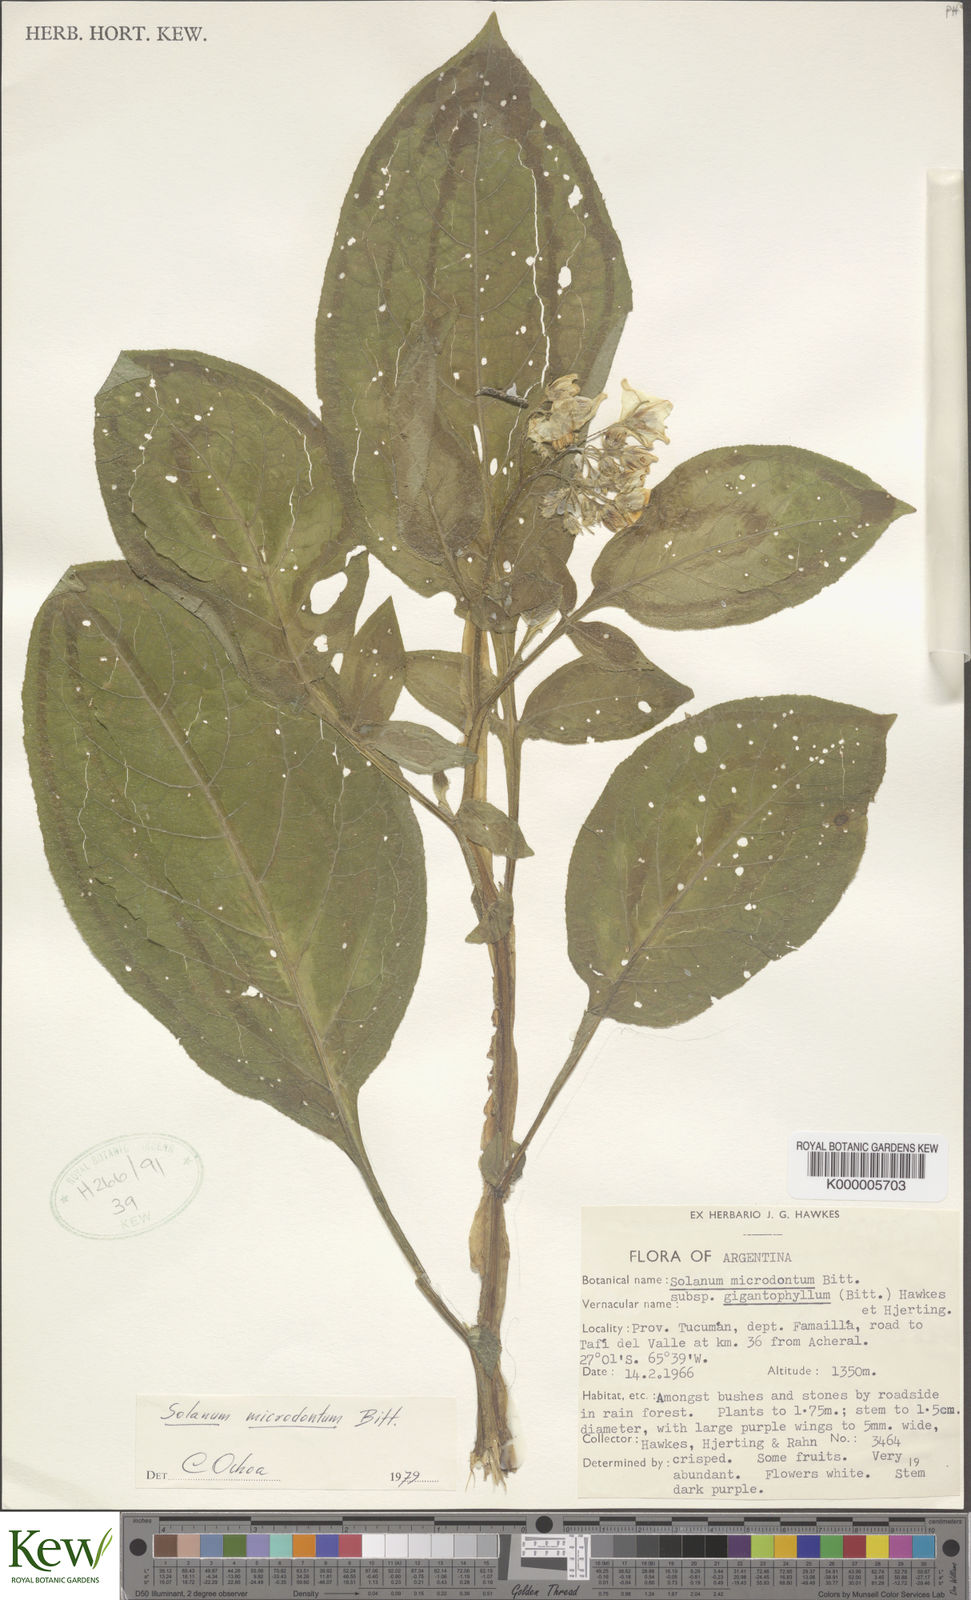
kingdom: Plantae
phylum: Tracheophyta
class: Magnoliopsida
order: Solanales
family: Solanaceae
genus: Solanum
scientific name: Solanum microdontum
